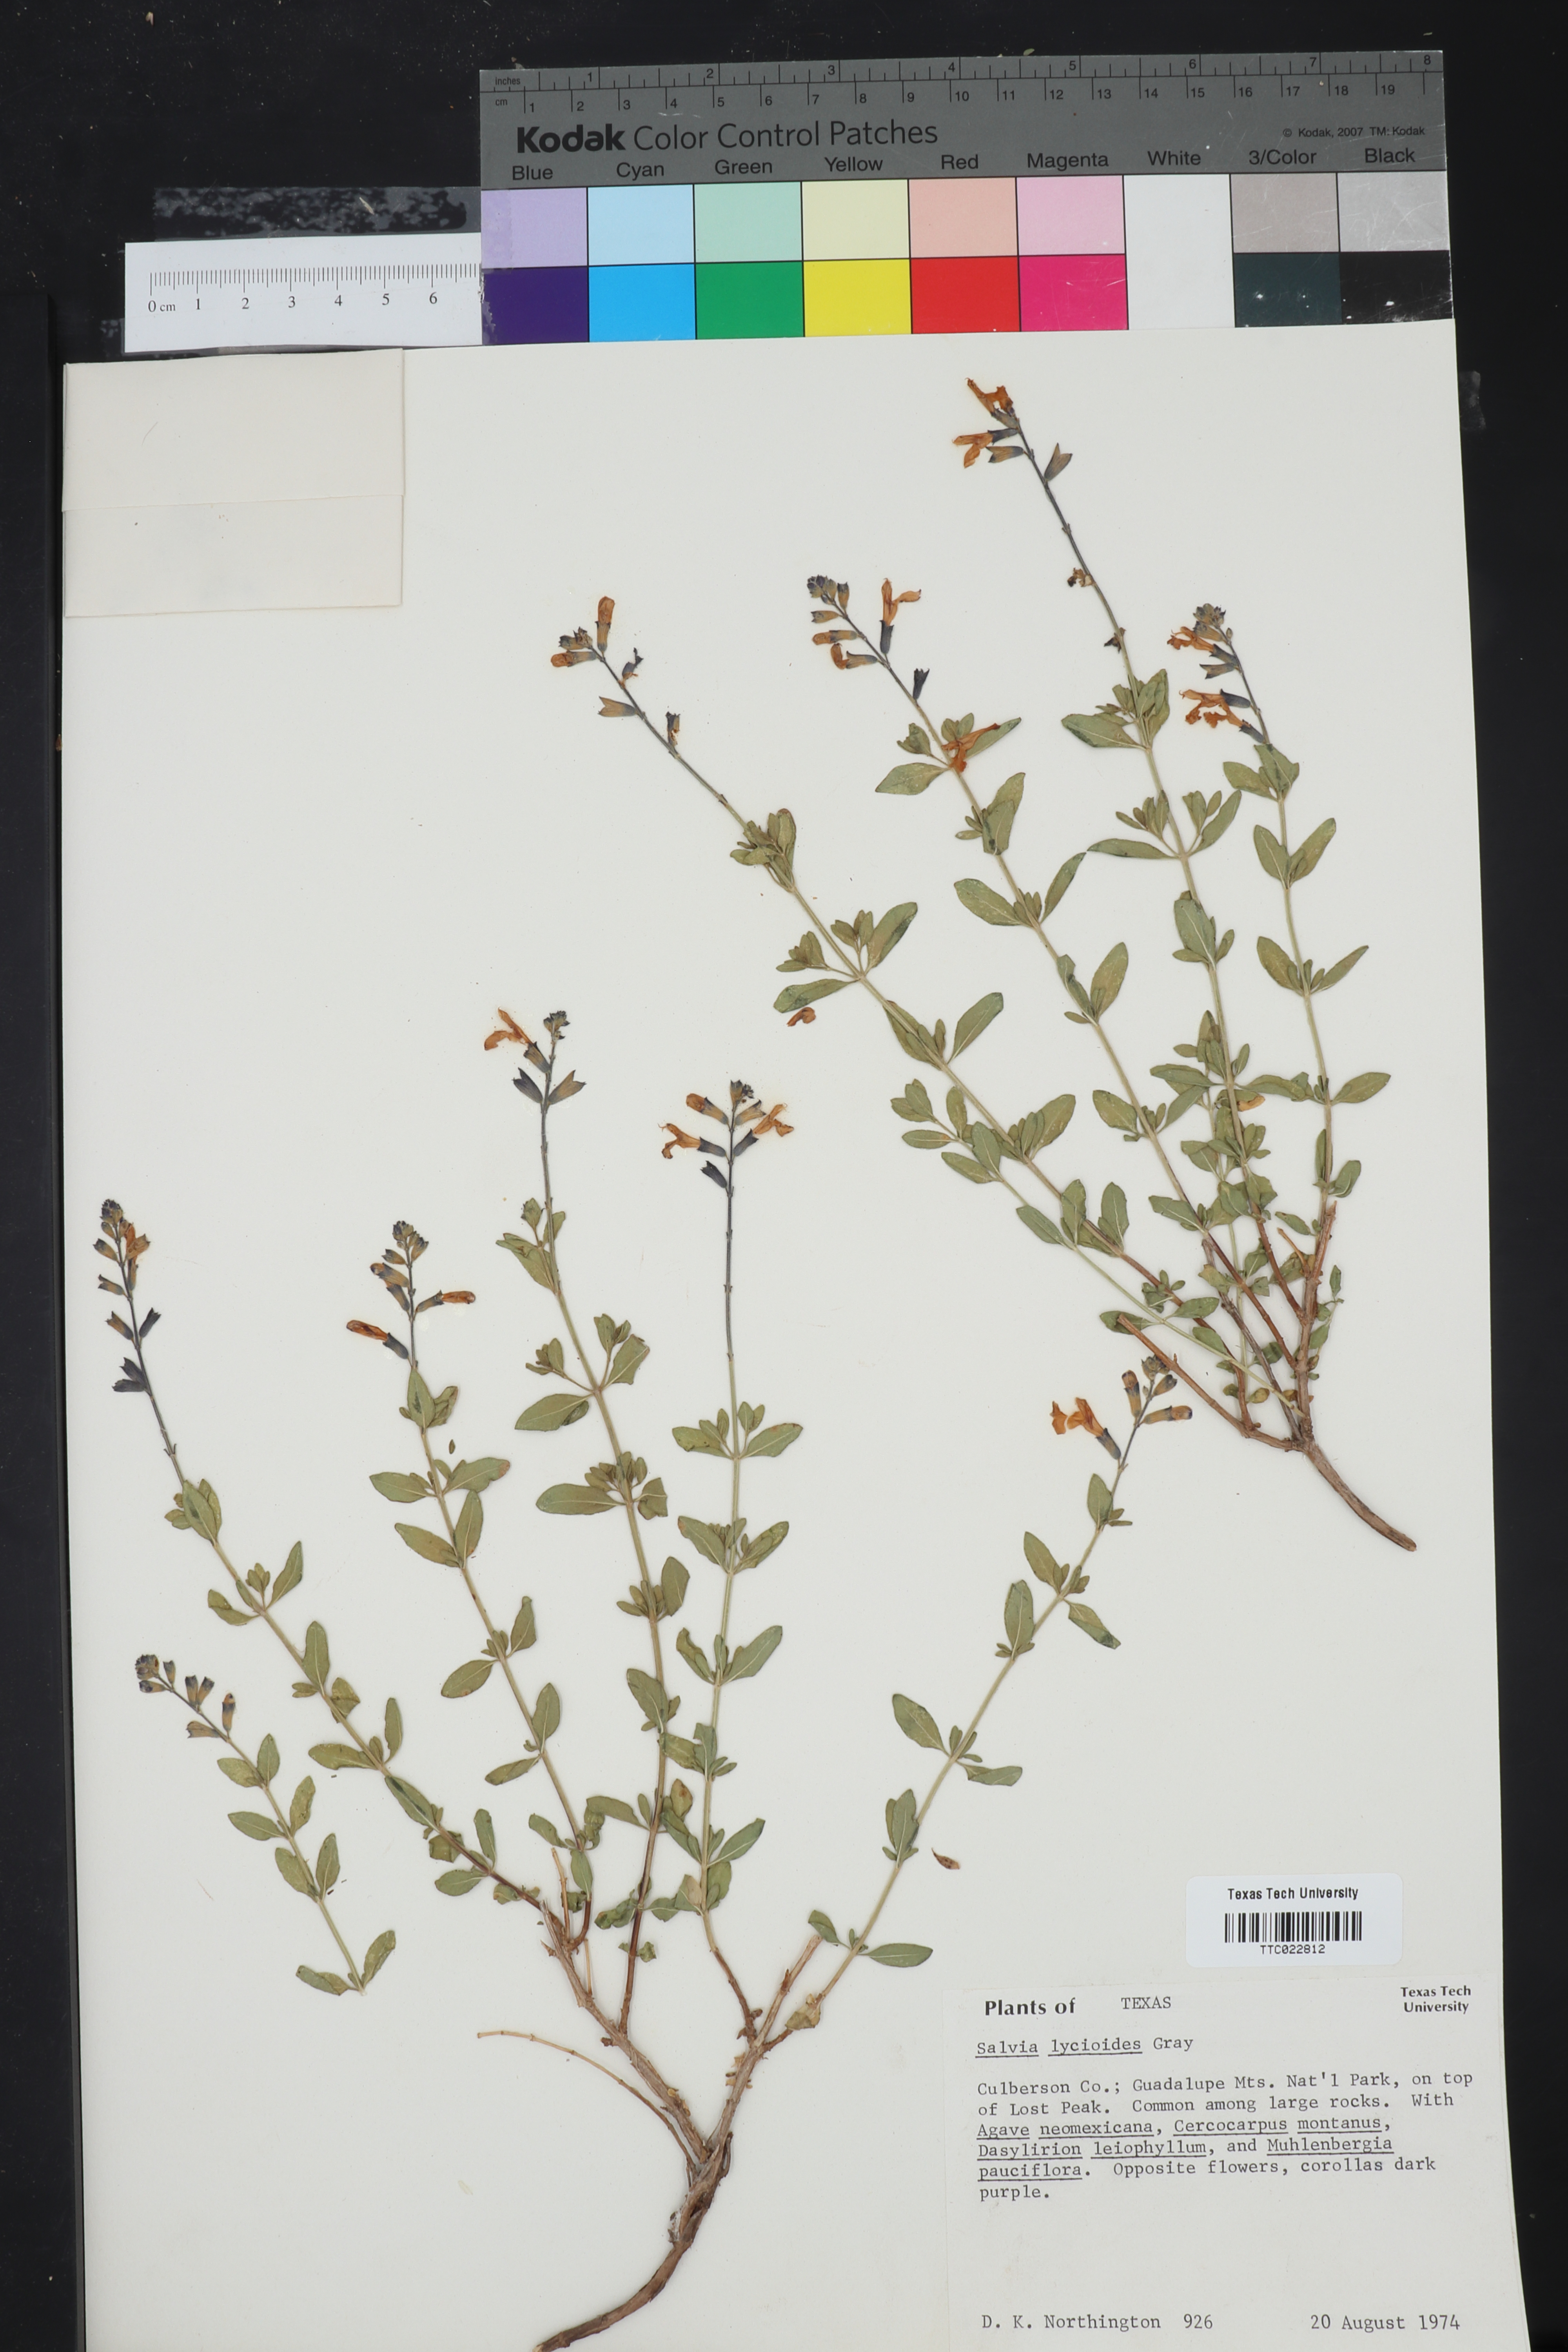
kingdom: Plantae
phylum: Tracheophyta
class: Magnoliopsida
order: Lamiales
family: Lamiaceae
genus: Salvia
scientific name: Salvia lycioides
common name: Canyon sage
